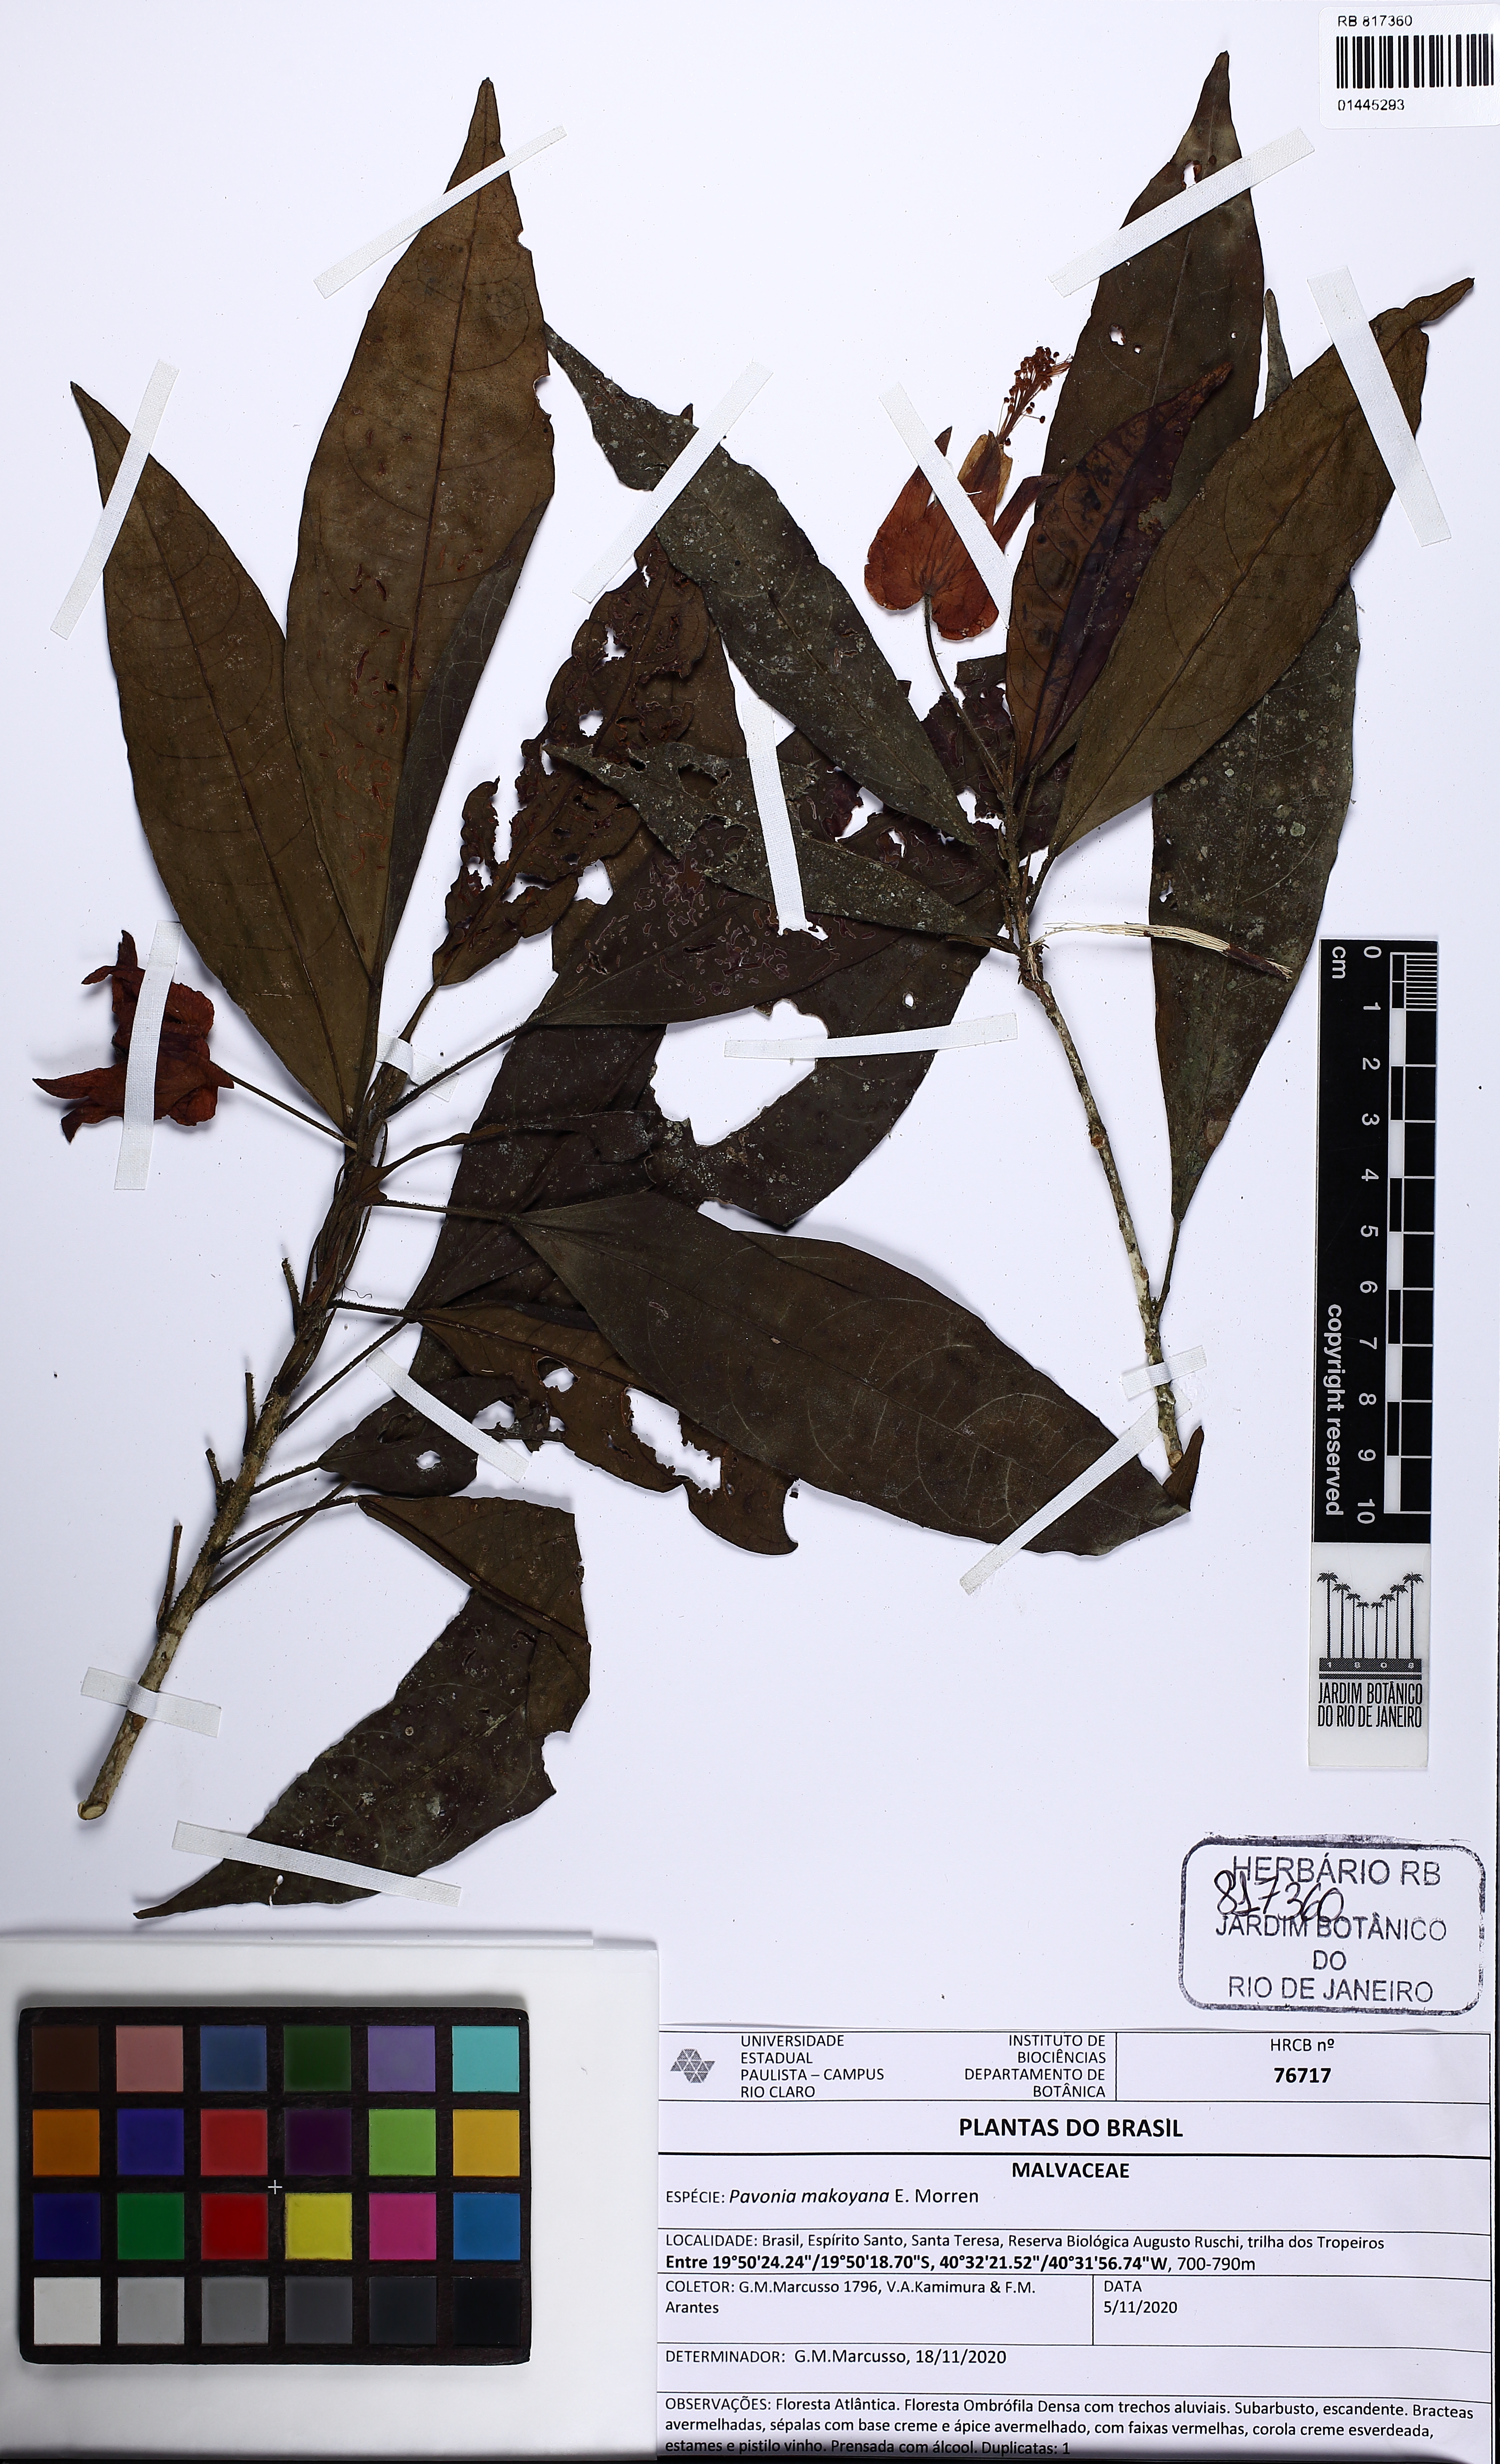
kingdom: Plantae
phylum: Tracheophyta
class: Magnoliopsida
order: Malvales
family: Malvaceae
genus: Pavonia
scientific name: Pavonia makoyana
